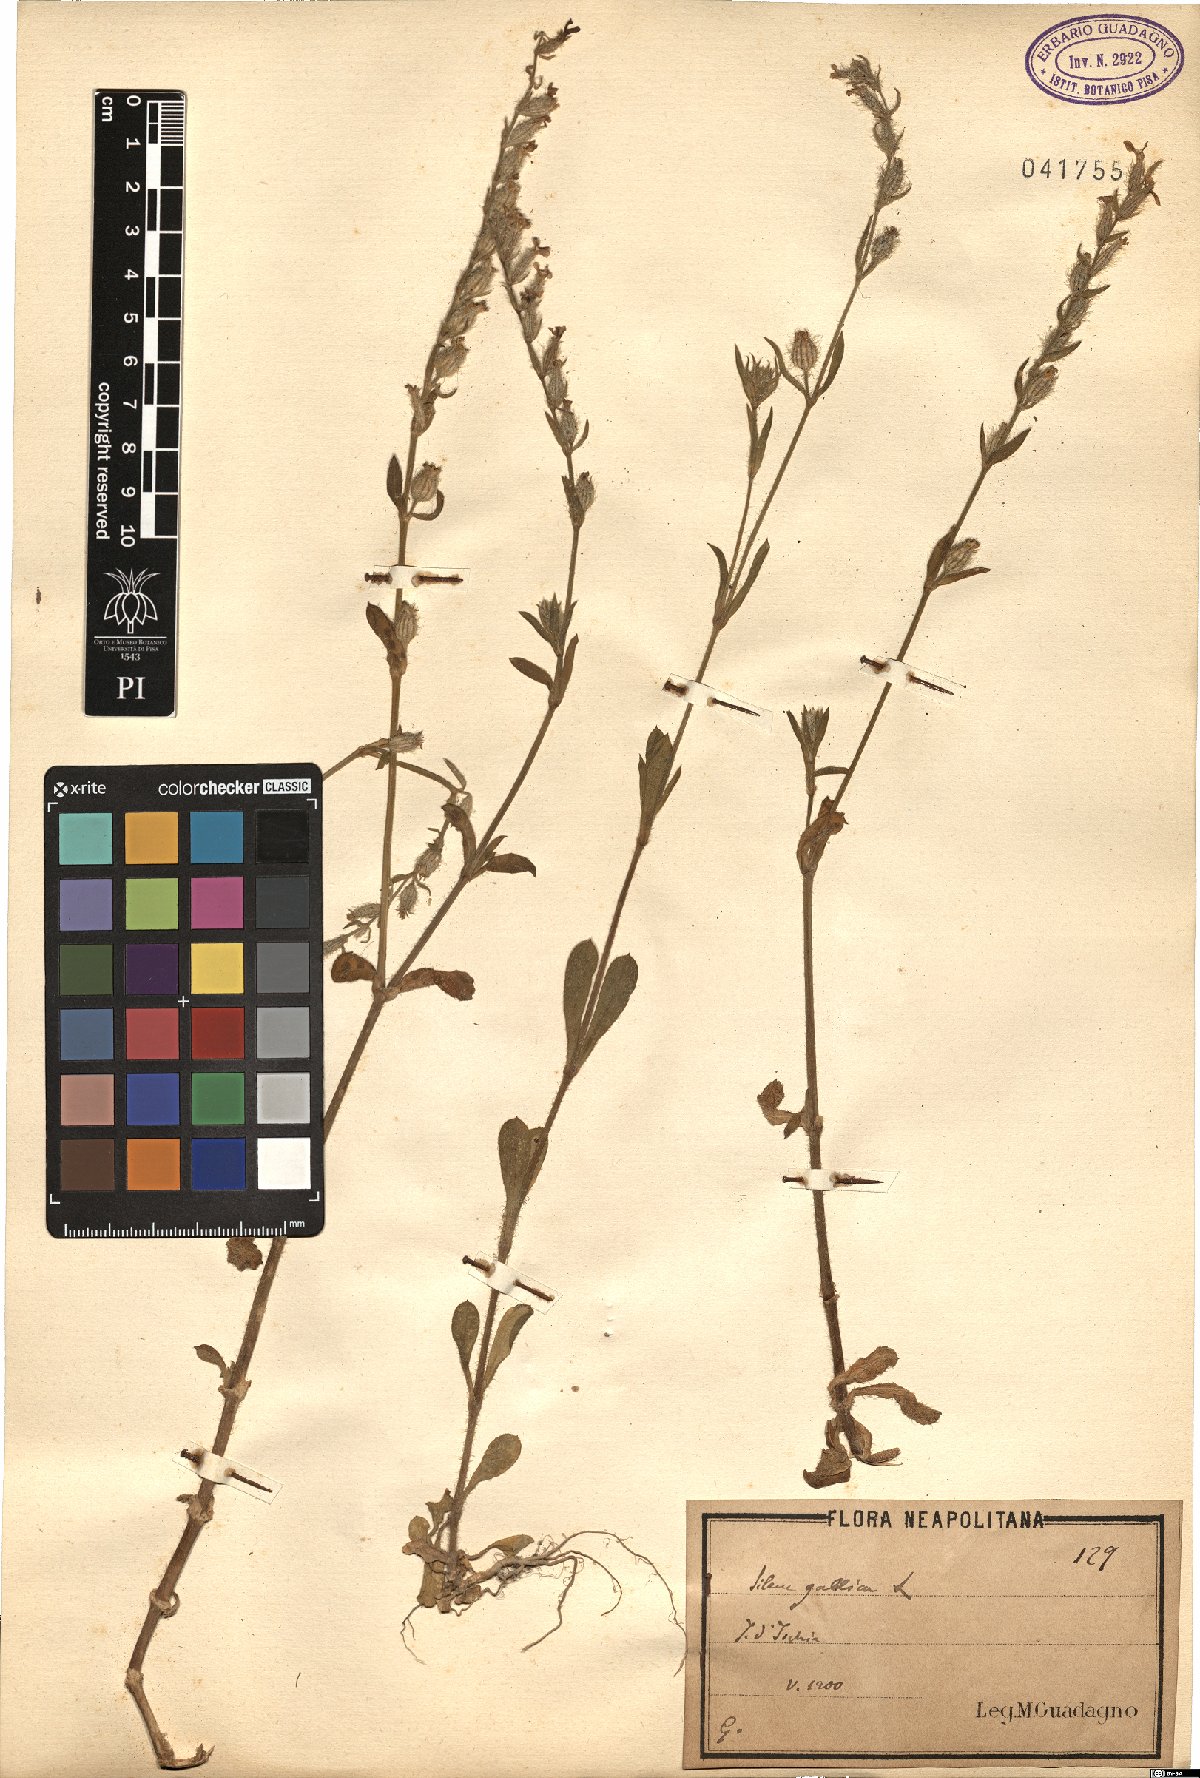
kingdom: Plantae
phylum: Tracheophyta
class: Magnoliopsida
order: Caryophyllales
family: Caryophyllaceae
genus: Silene
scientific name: Silene gallica
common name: Small-flowered catchfly
